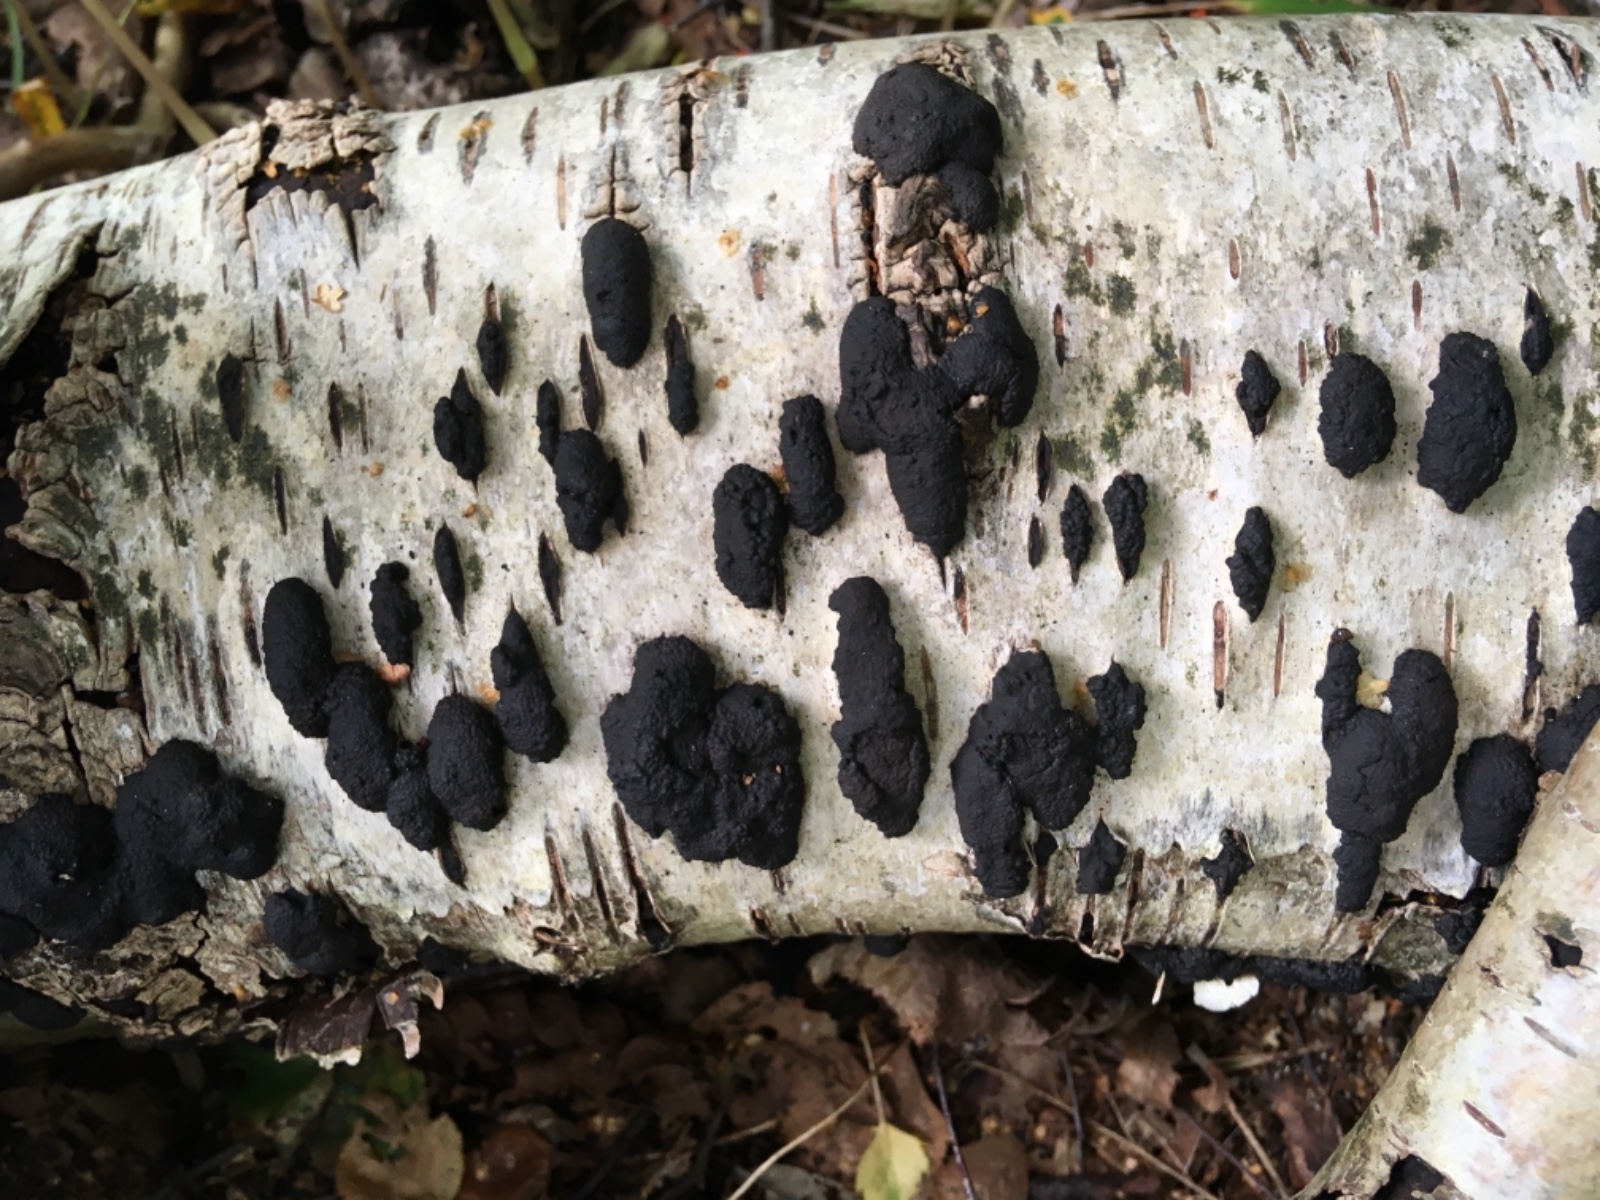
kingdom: Fungi
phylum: Ascomycota
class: Sordariomycetes
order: Xylariales
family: Hypoxylaceae
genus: Jackrogersella
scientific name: Jackrogersella multiformis
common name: foranderlig kulbær
